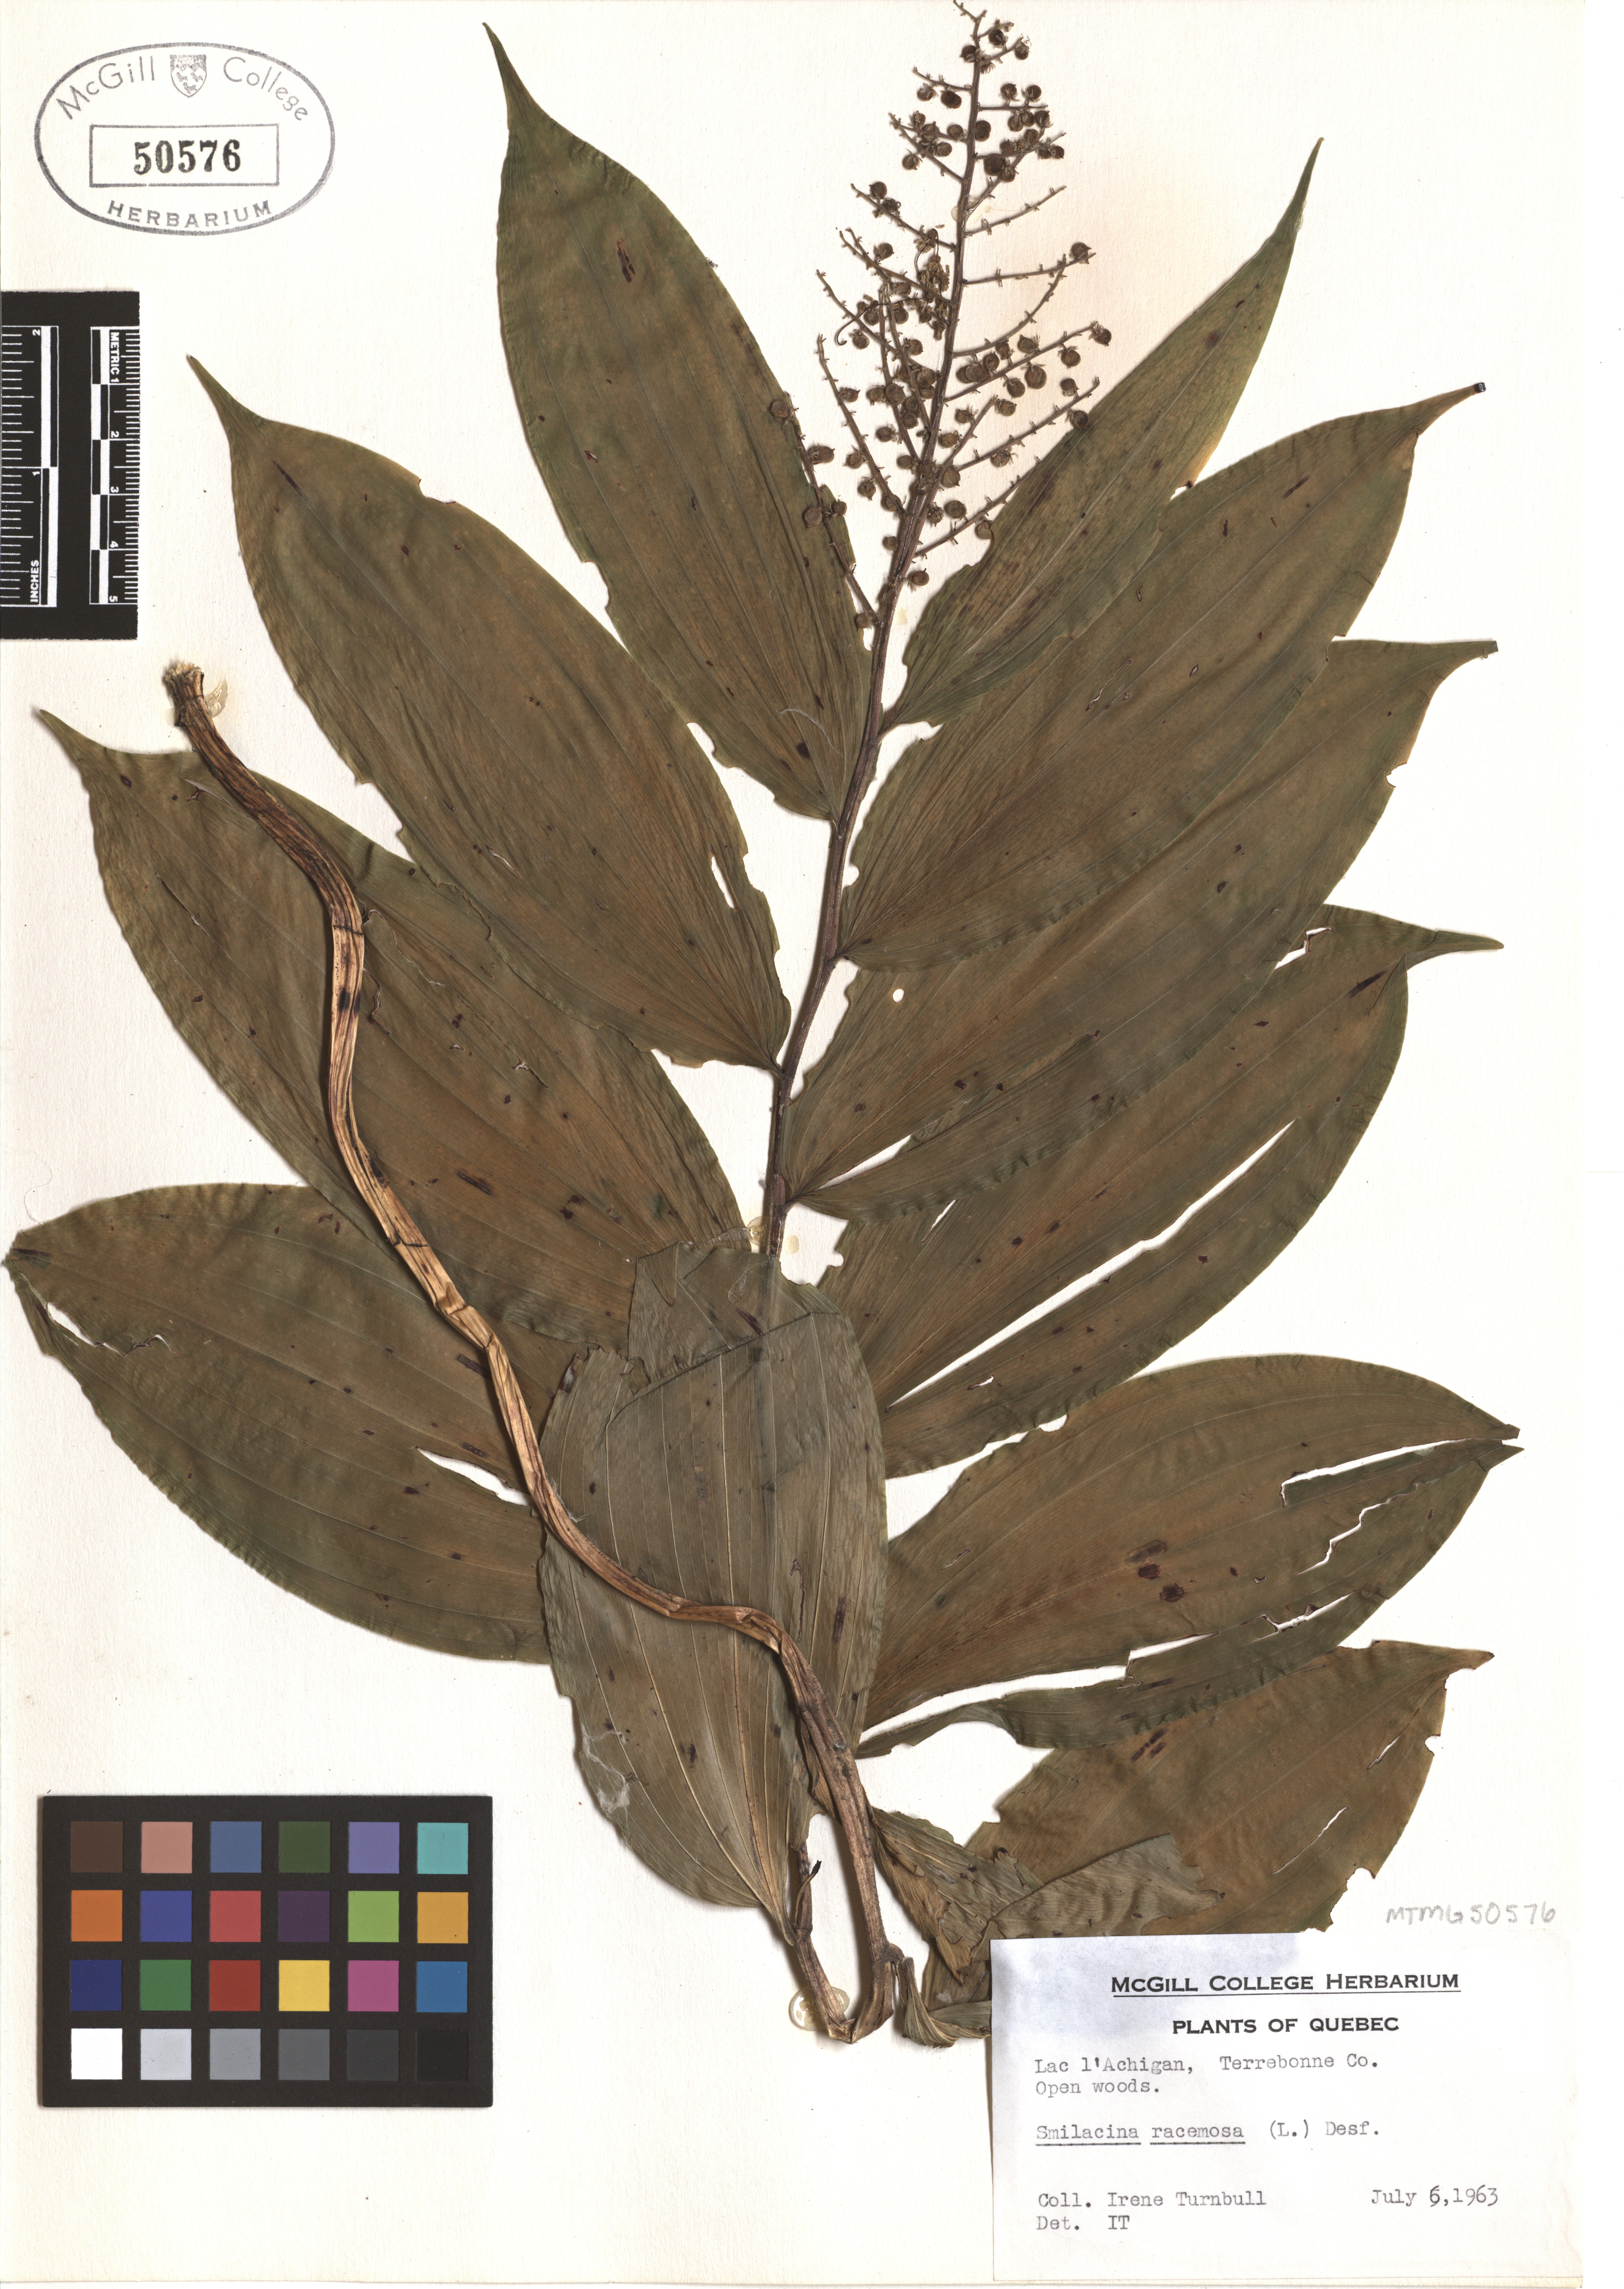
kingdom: Plantae
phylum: Tracheophyta
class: Liliopsida
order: Asparagales
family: Asparagaceae
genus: Maianthemum
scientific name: Maianthemum racemosum
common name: False spikenard
